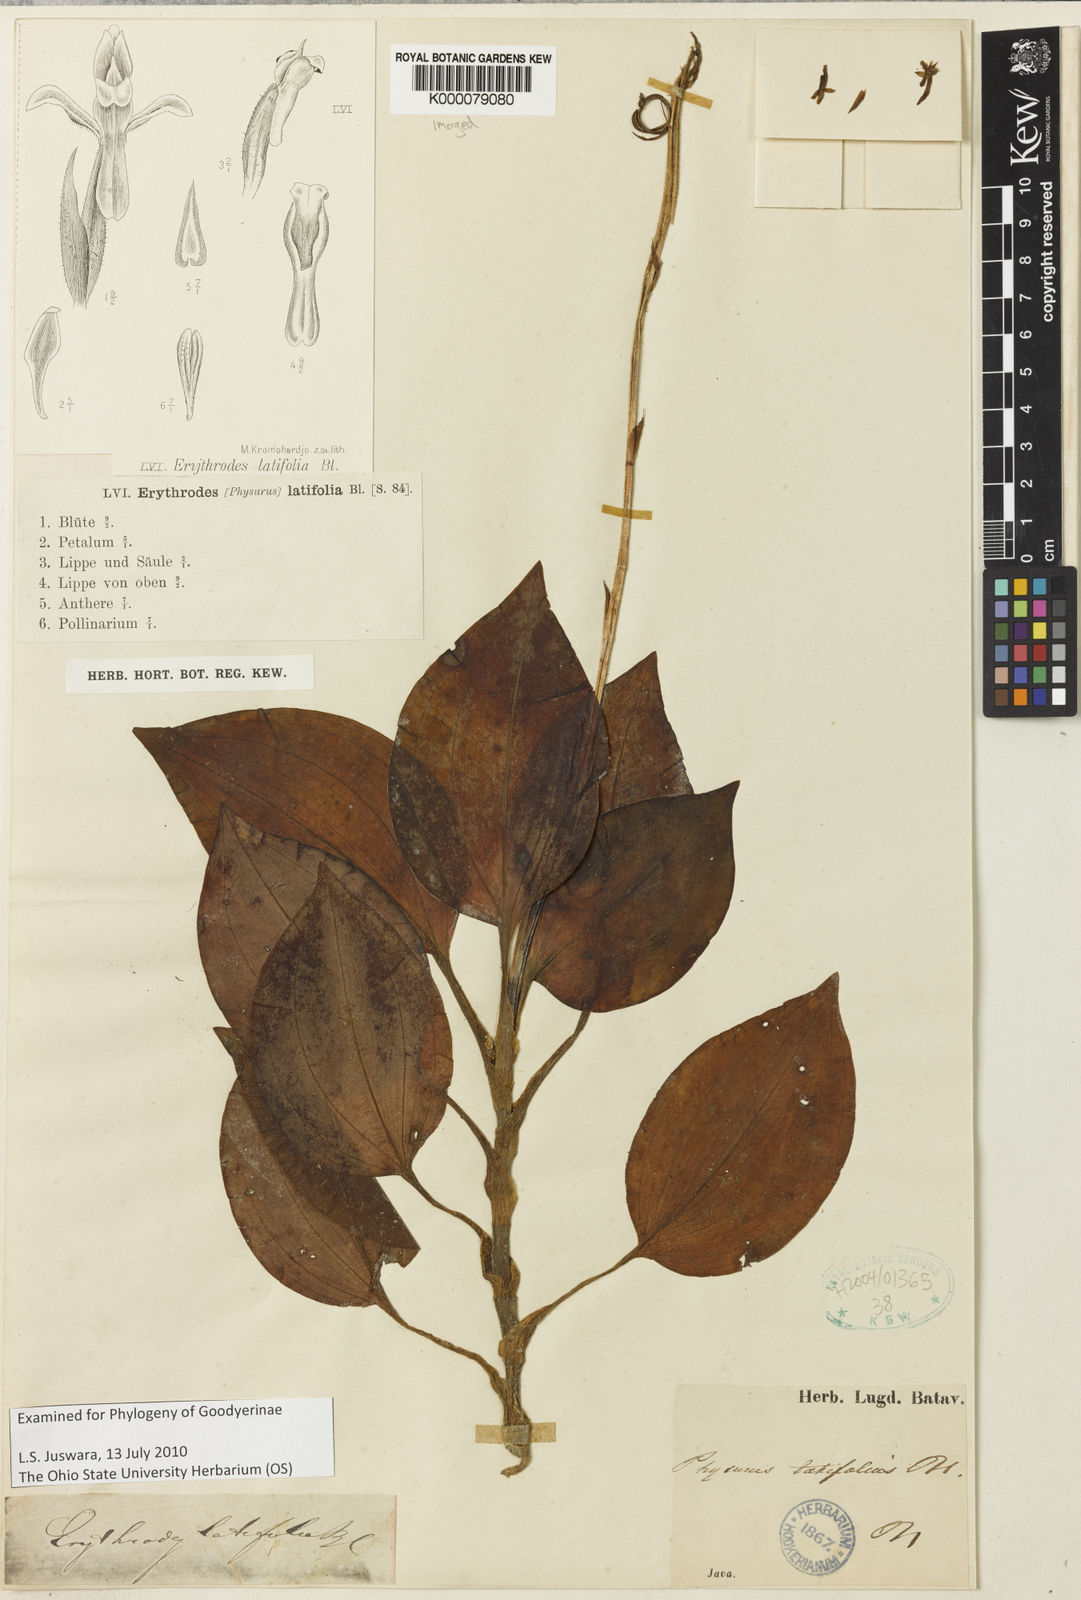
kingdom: Plantae
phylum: Tracheophyta
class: Liliopsida
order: Asparagales
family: Orchidaceae
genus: Erythrodes
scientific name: Erythrodes latifolia
